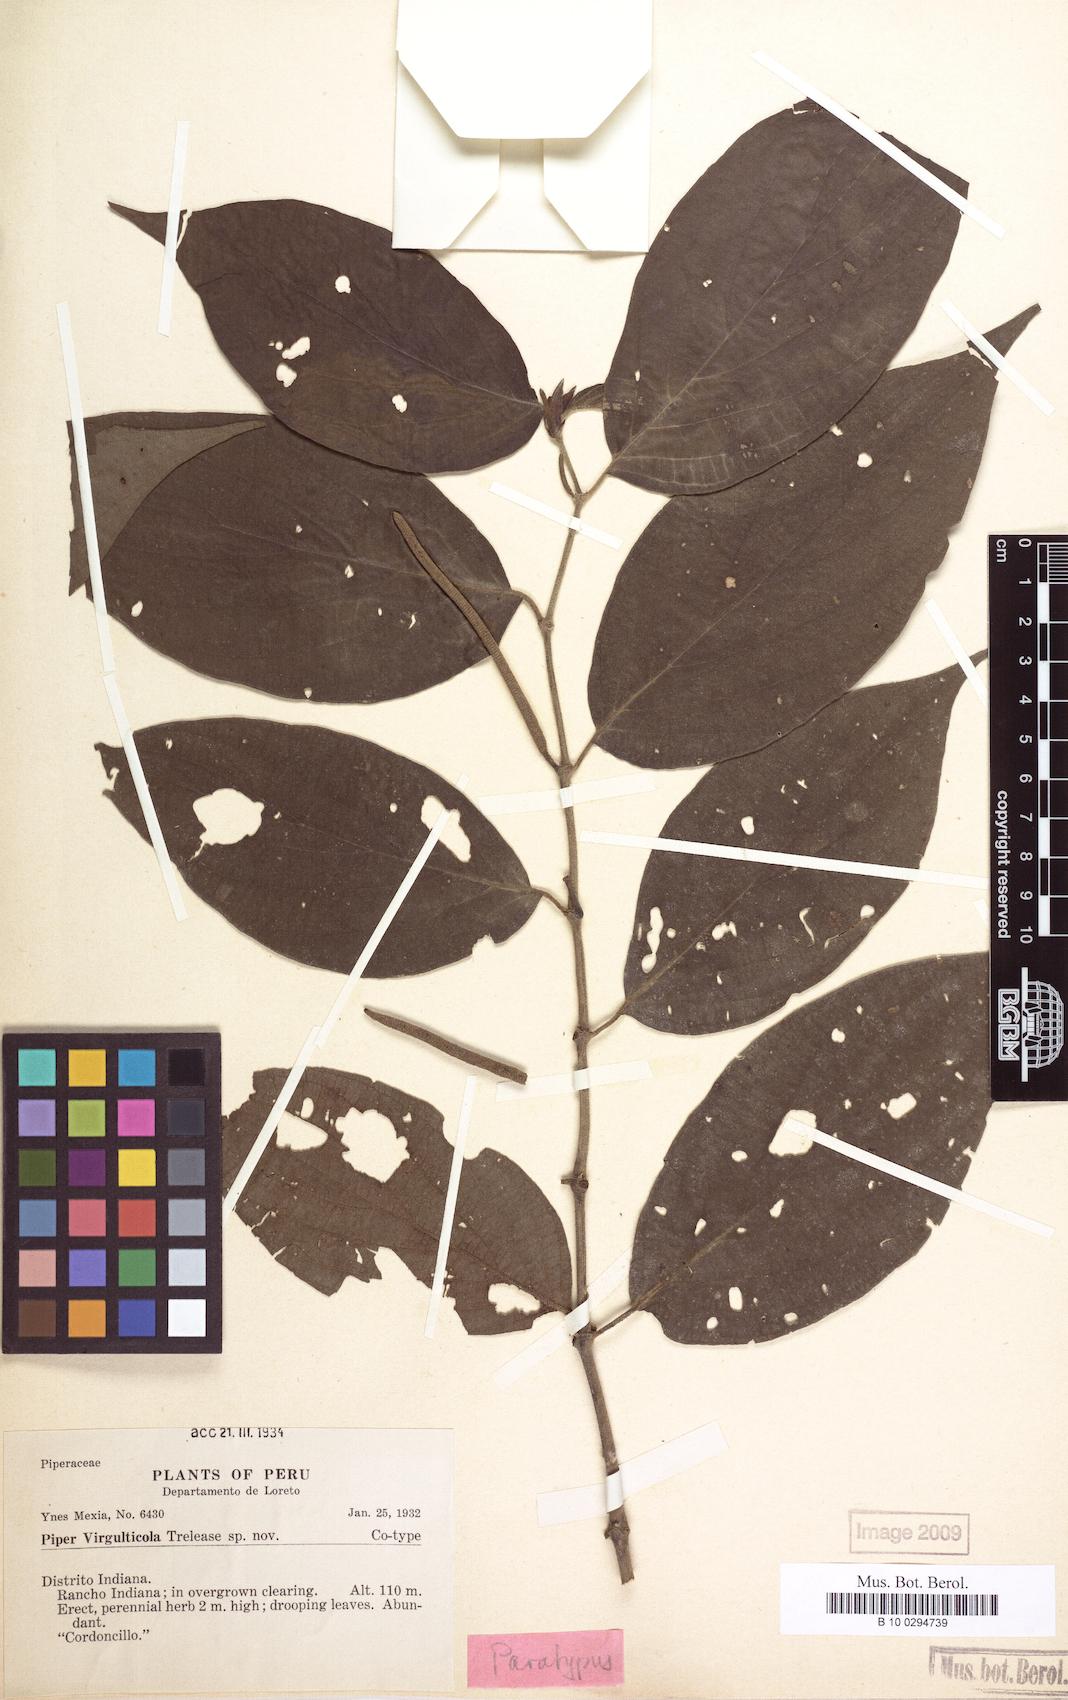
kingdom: Plantae
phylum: Tracheophyta
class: Magnoliopsida
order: Piperales
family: Piperaceae
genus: Piper
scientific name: Piper hispidum
